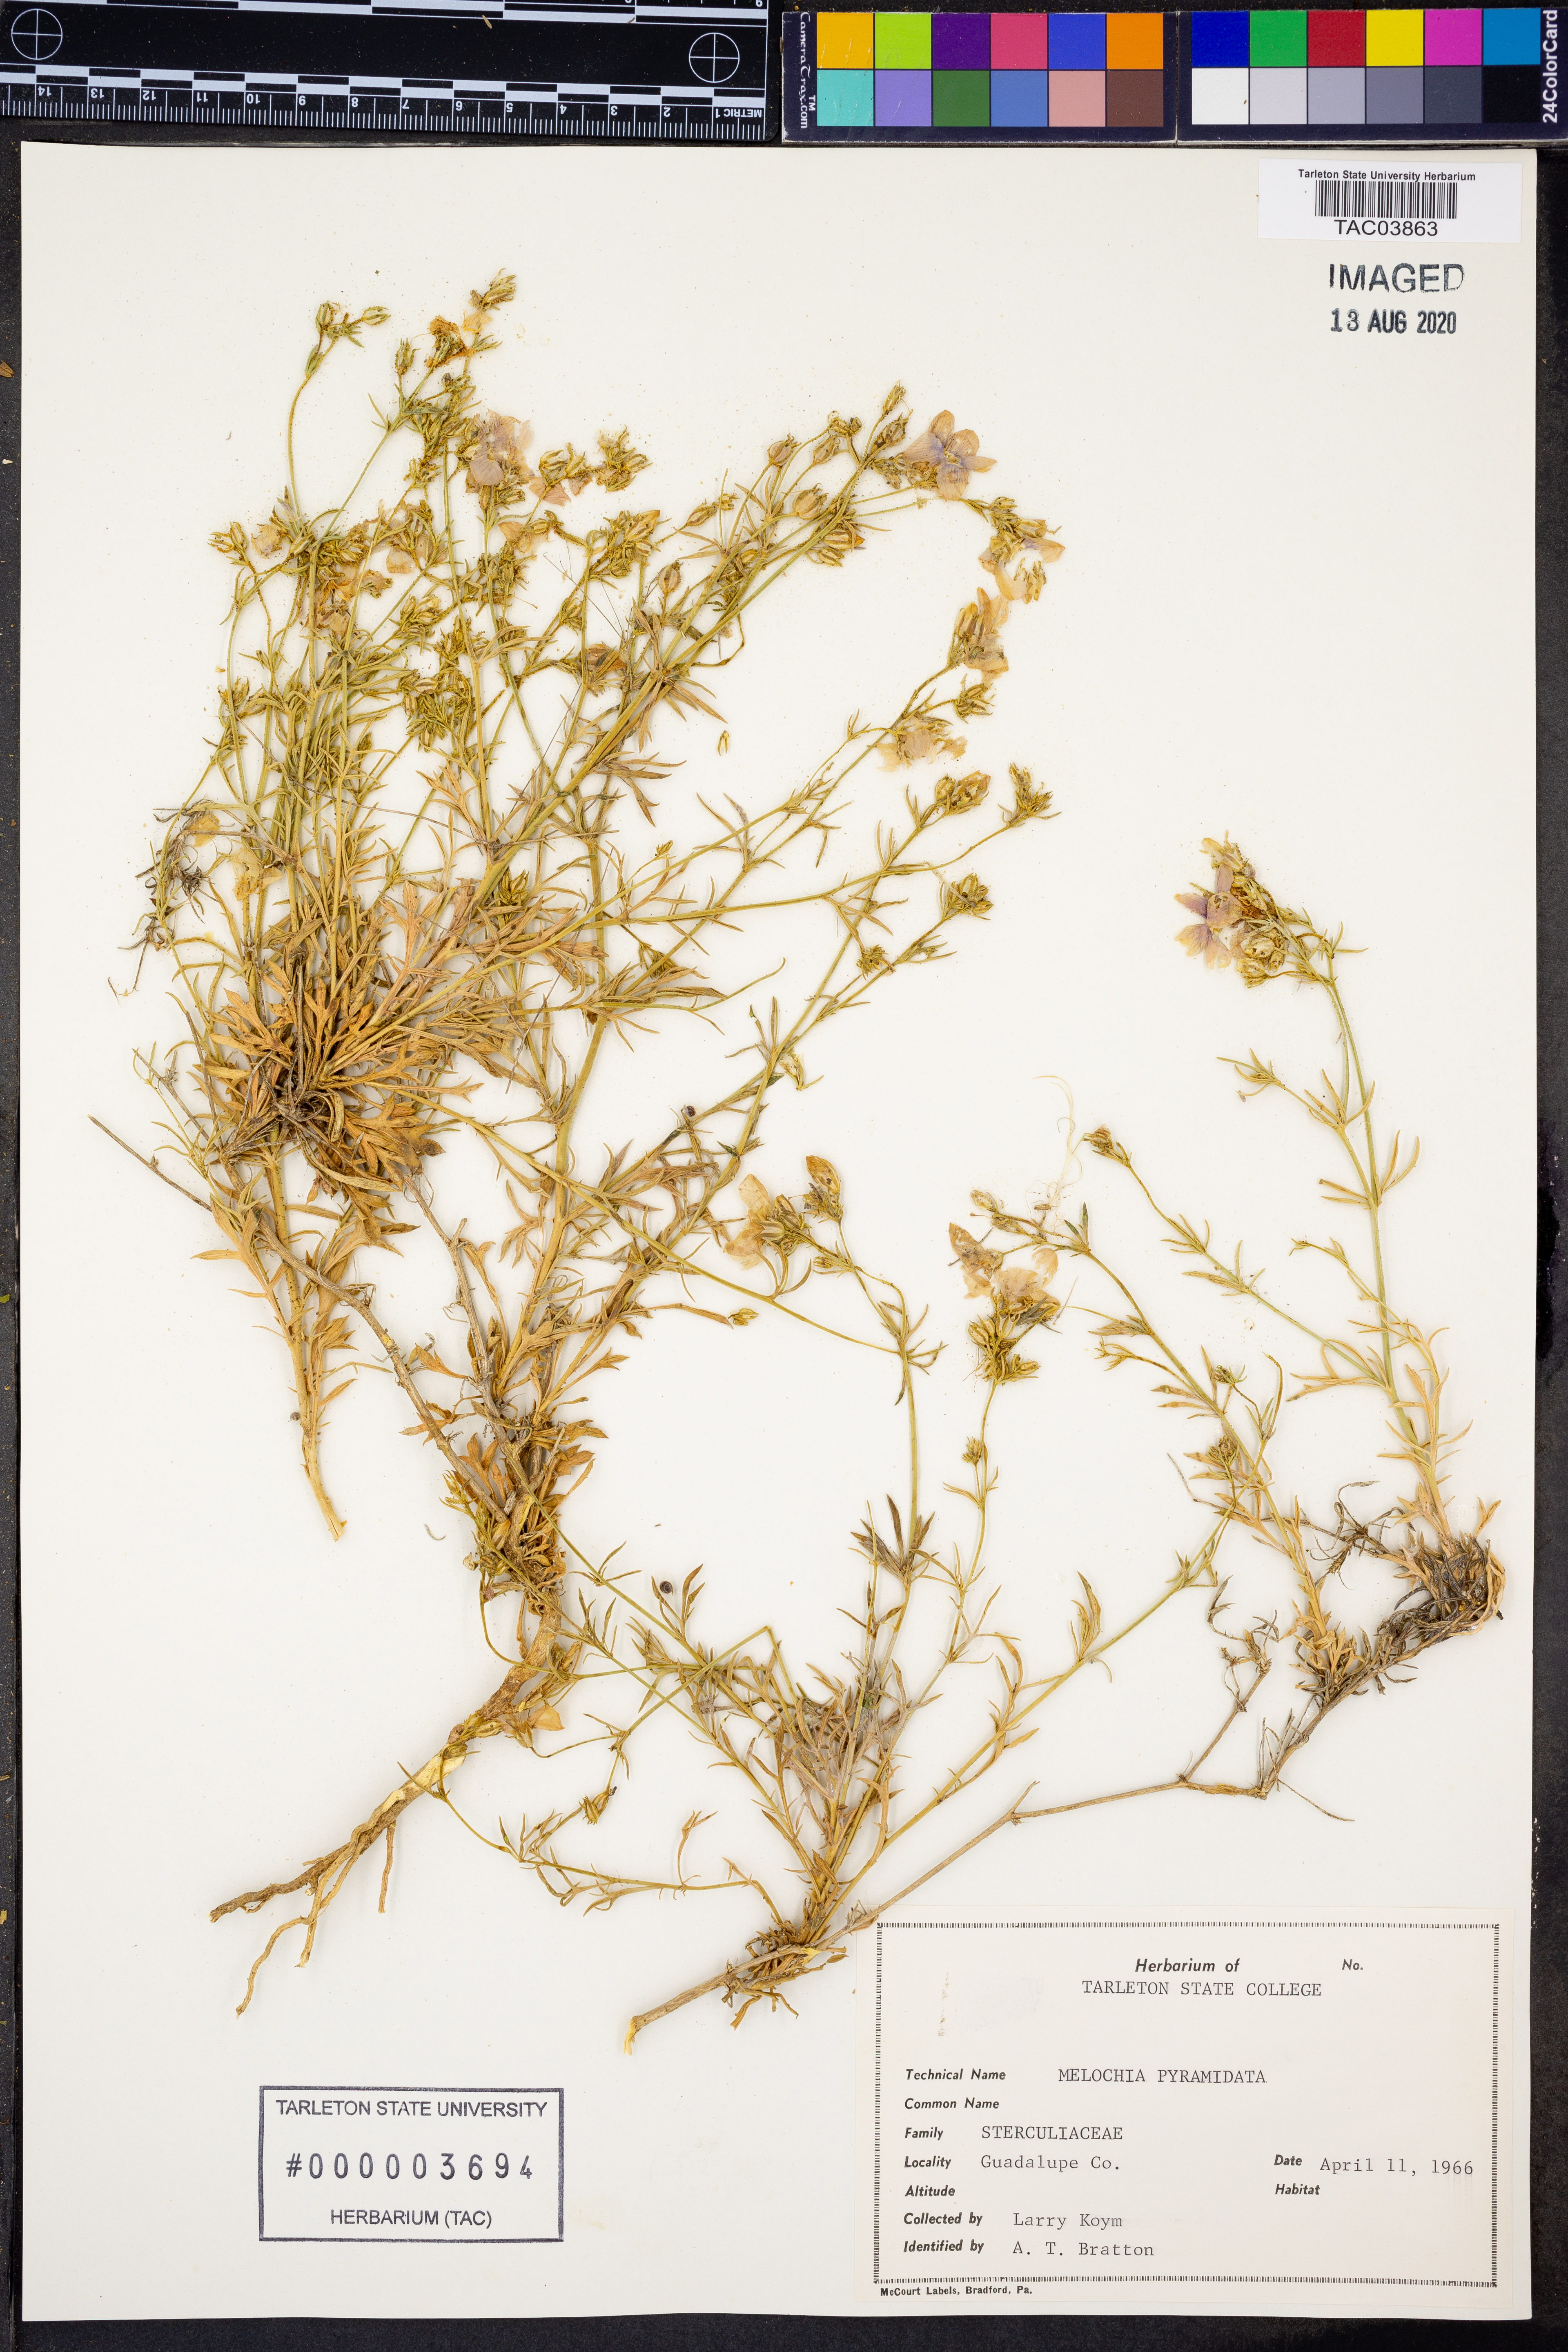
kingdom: Plantae
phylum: Tracheophyta
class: Magnoliopsida
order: Malvales
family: Malvaceae
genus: Melochia
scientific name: Melochia pyramidata
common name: Pyramidflower
